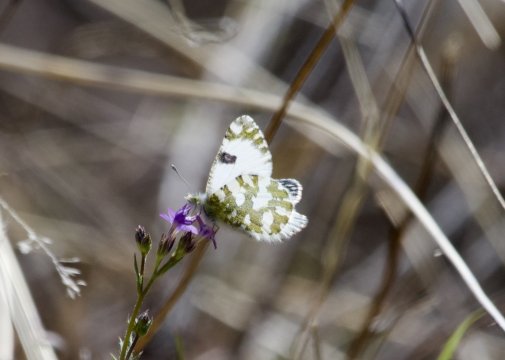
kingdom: Animalia
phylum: Arthropoda
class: Insecta
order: Lepidoptera
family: Pieridae
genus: Euchloe
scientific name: Euchloe lotta
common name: Desert Marble
